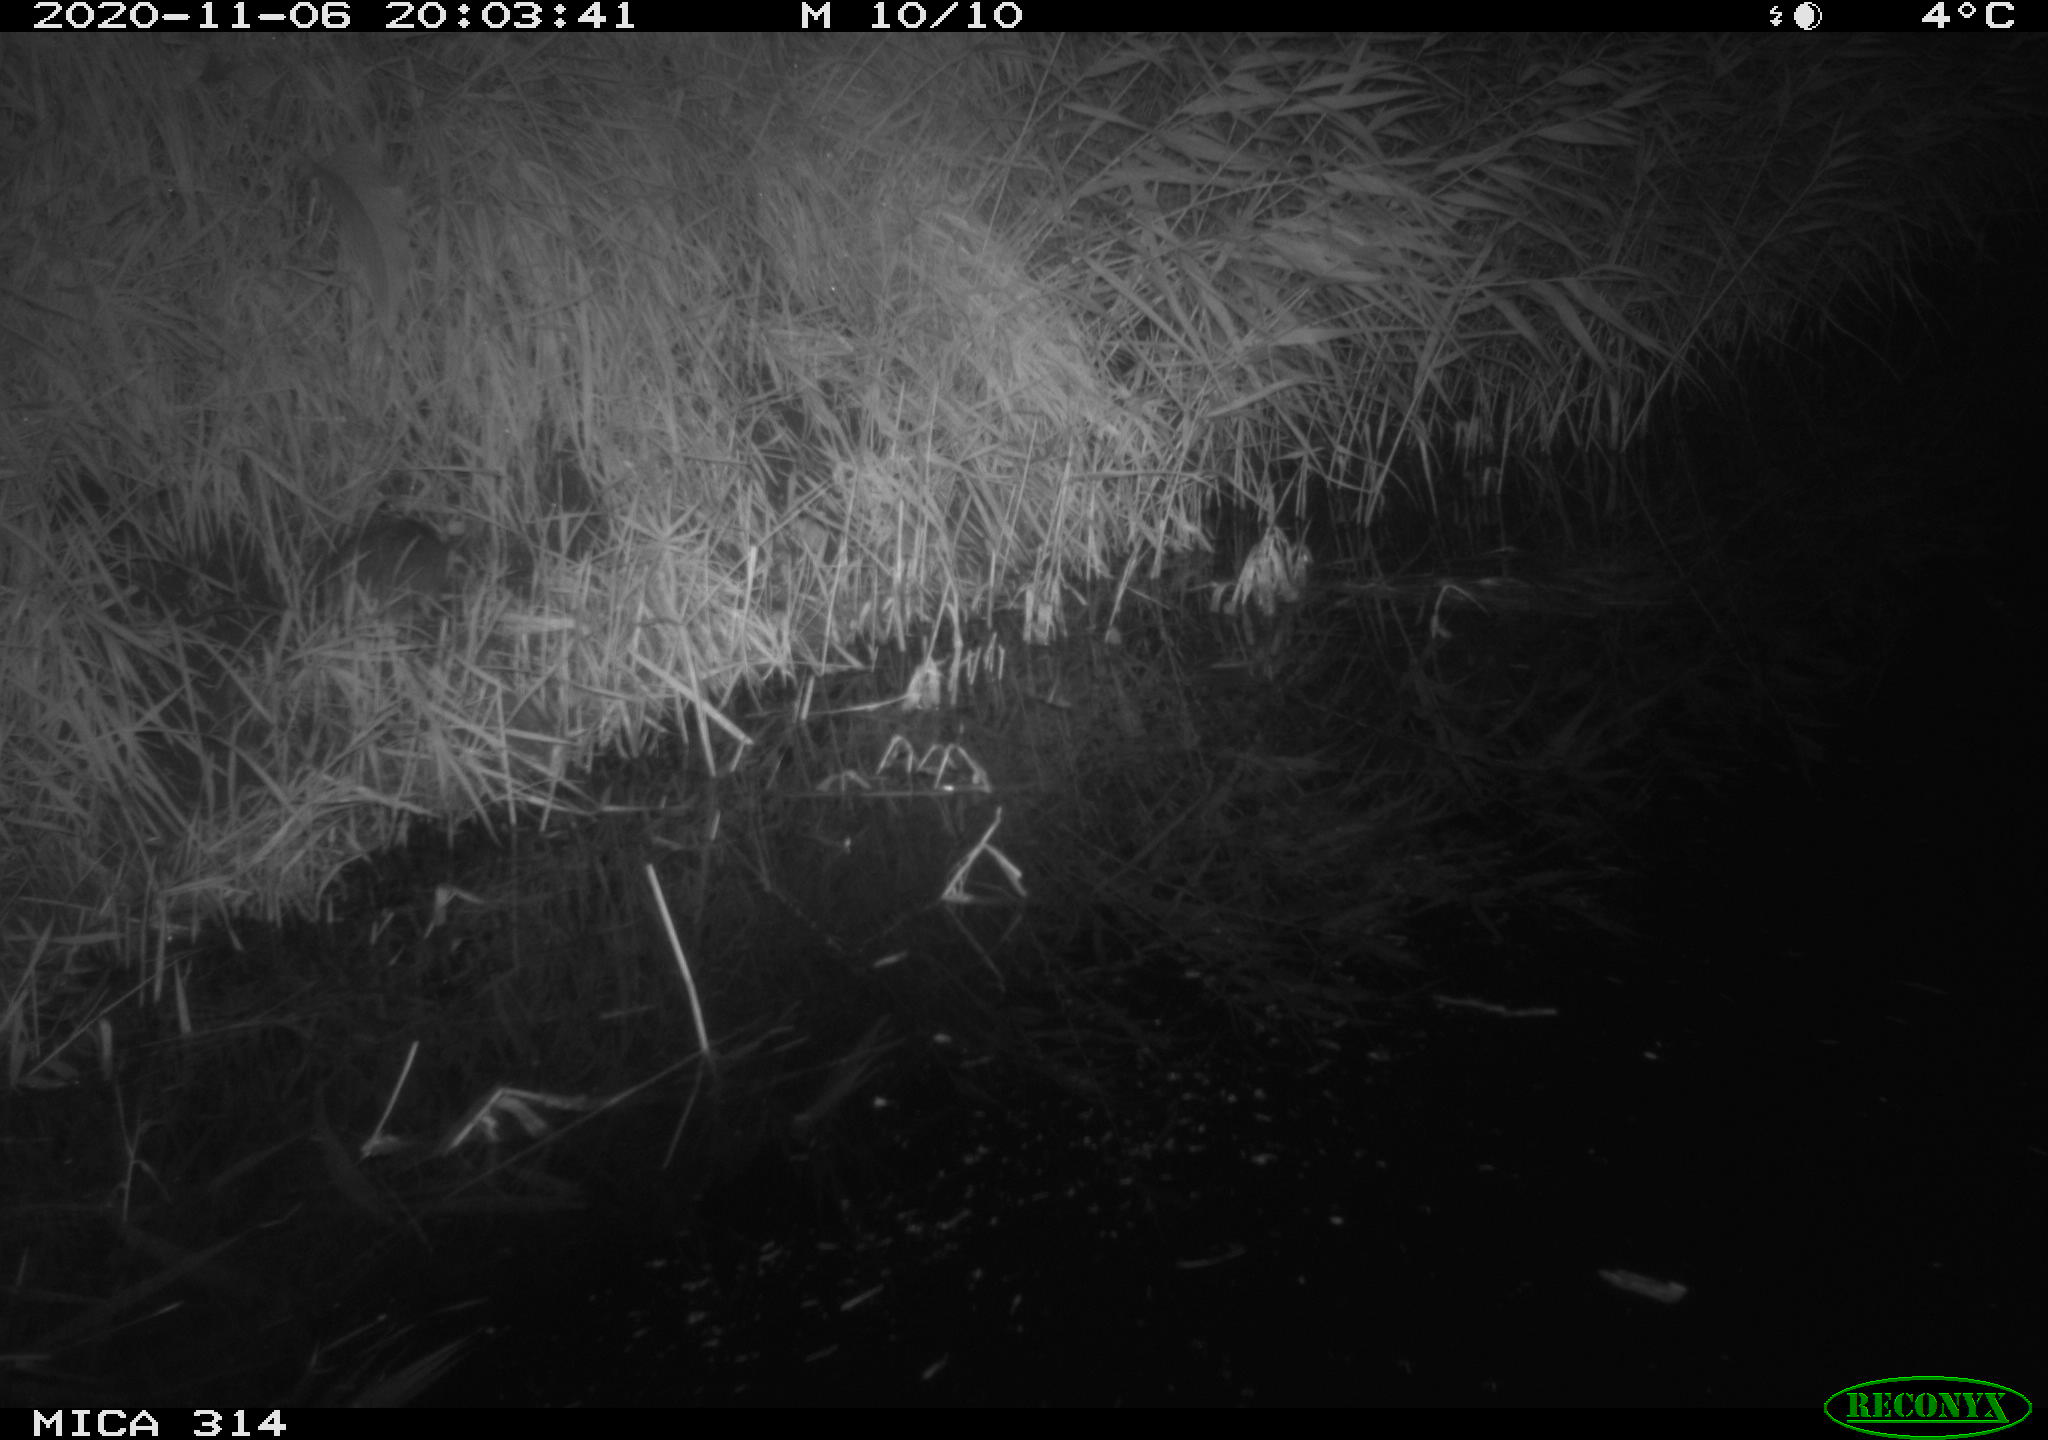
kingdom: Animalia
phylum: Chordata
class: Mammalia
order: Rodentia
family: Muridae
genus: Rattus
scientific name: Rattus norvegicus
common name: Brown rat
